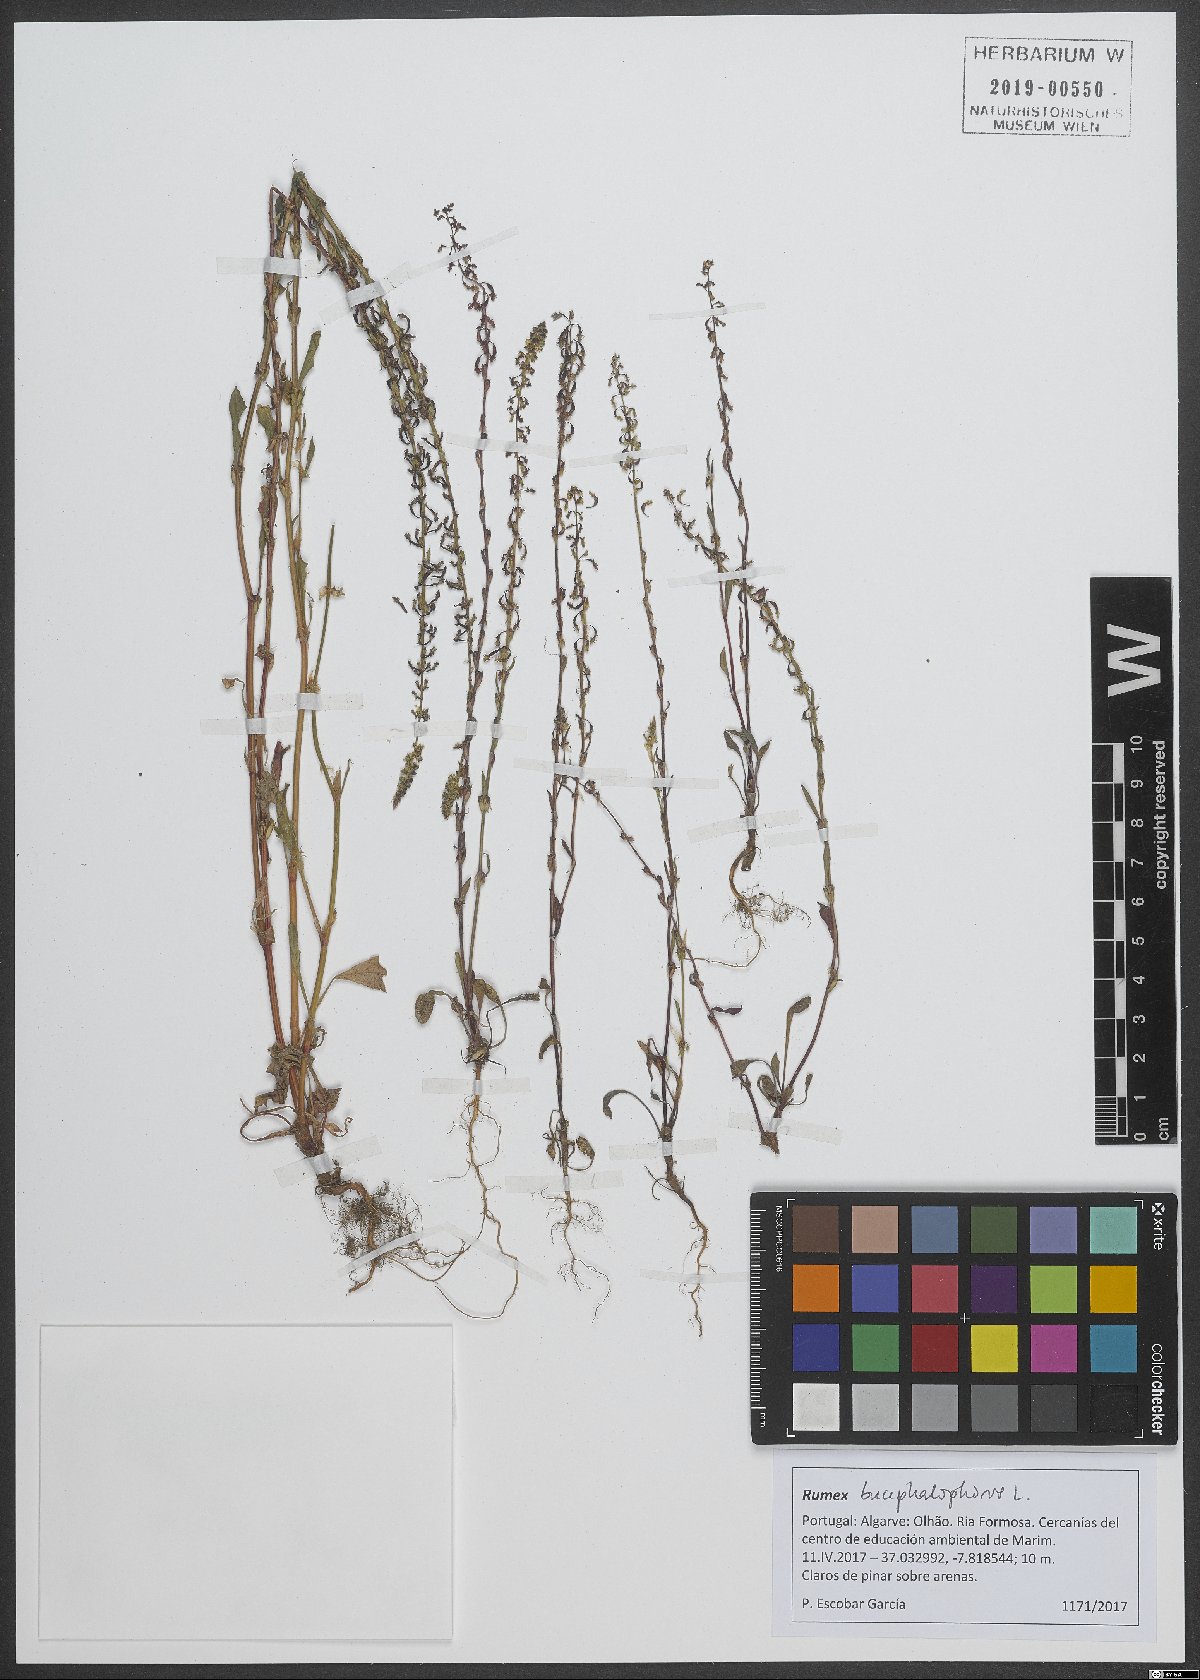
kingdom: Plantae
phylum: Tracheophyta
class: Magnoliopsida
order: Caryophyllales
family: Polygonaceae
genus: Rumex
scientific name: Rumex bucephalophorus
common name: Red dock
